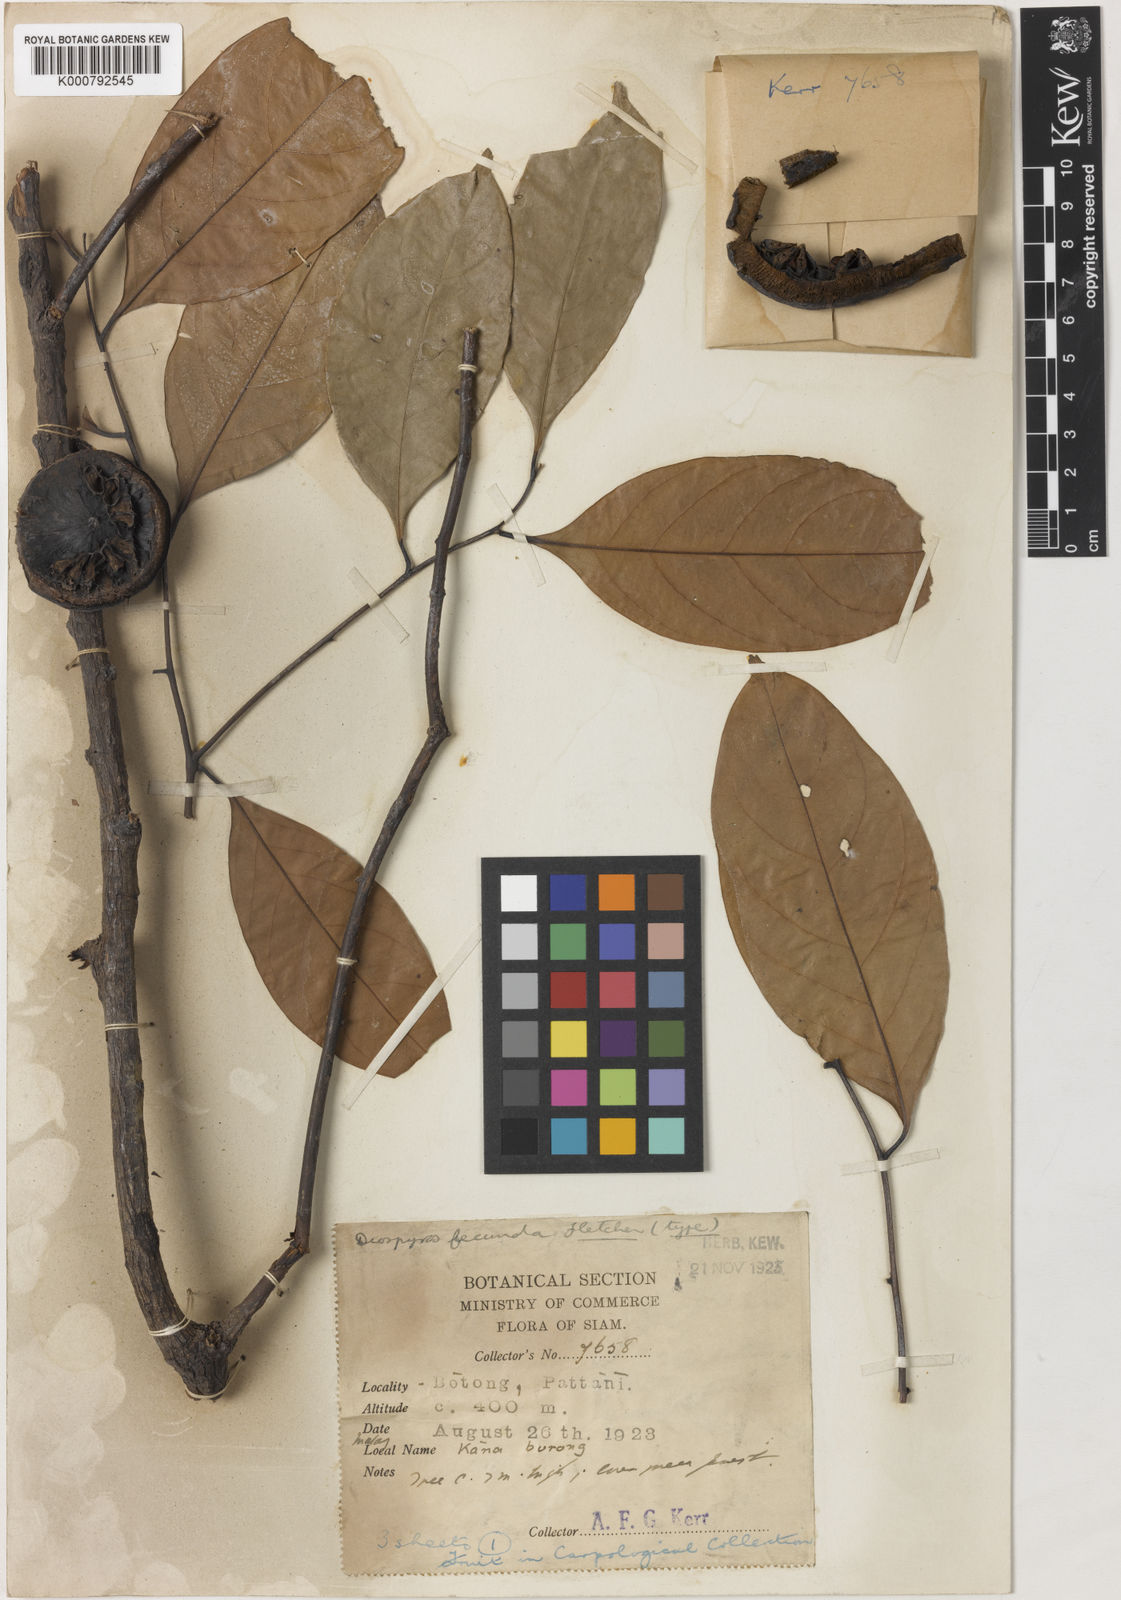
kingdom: Plantae
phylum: Tracheophyta
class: Magnoliopsida
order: Ericales
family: Ebenaceae
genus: Diospyros
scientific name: Diospyros borneensis
